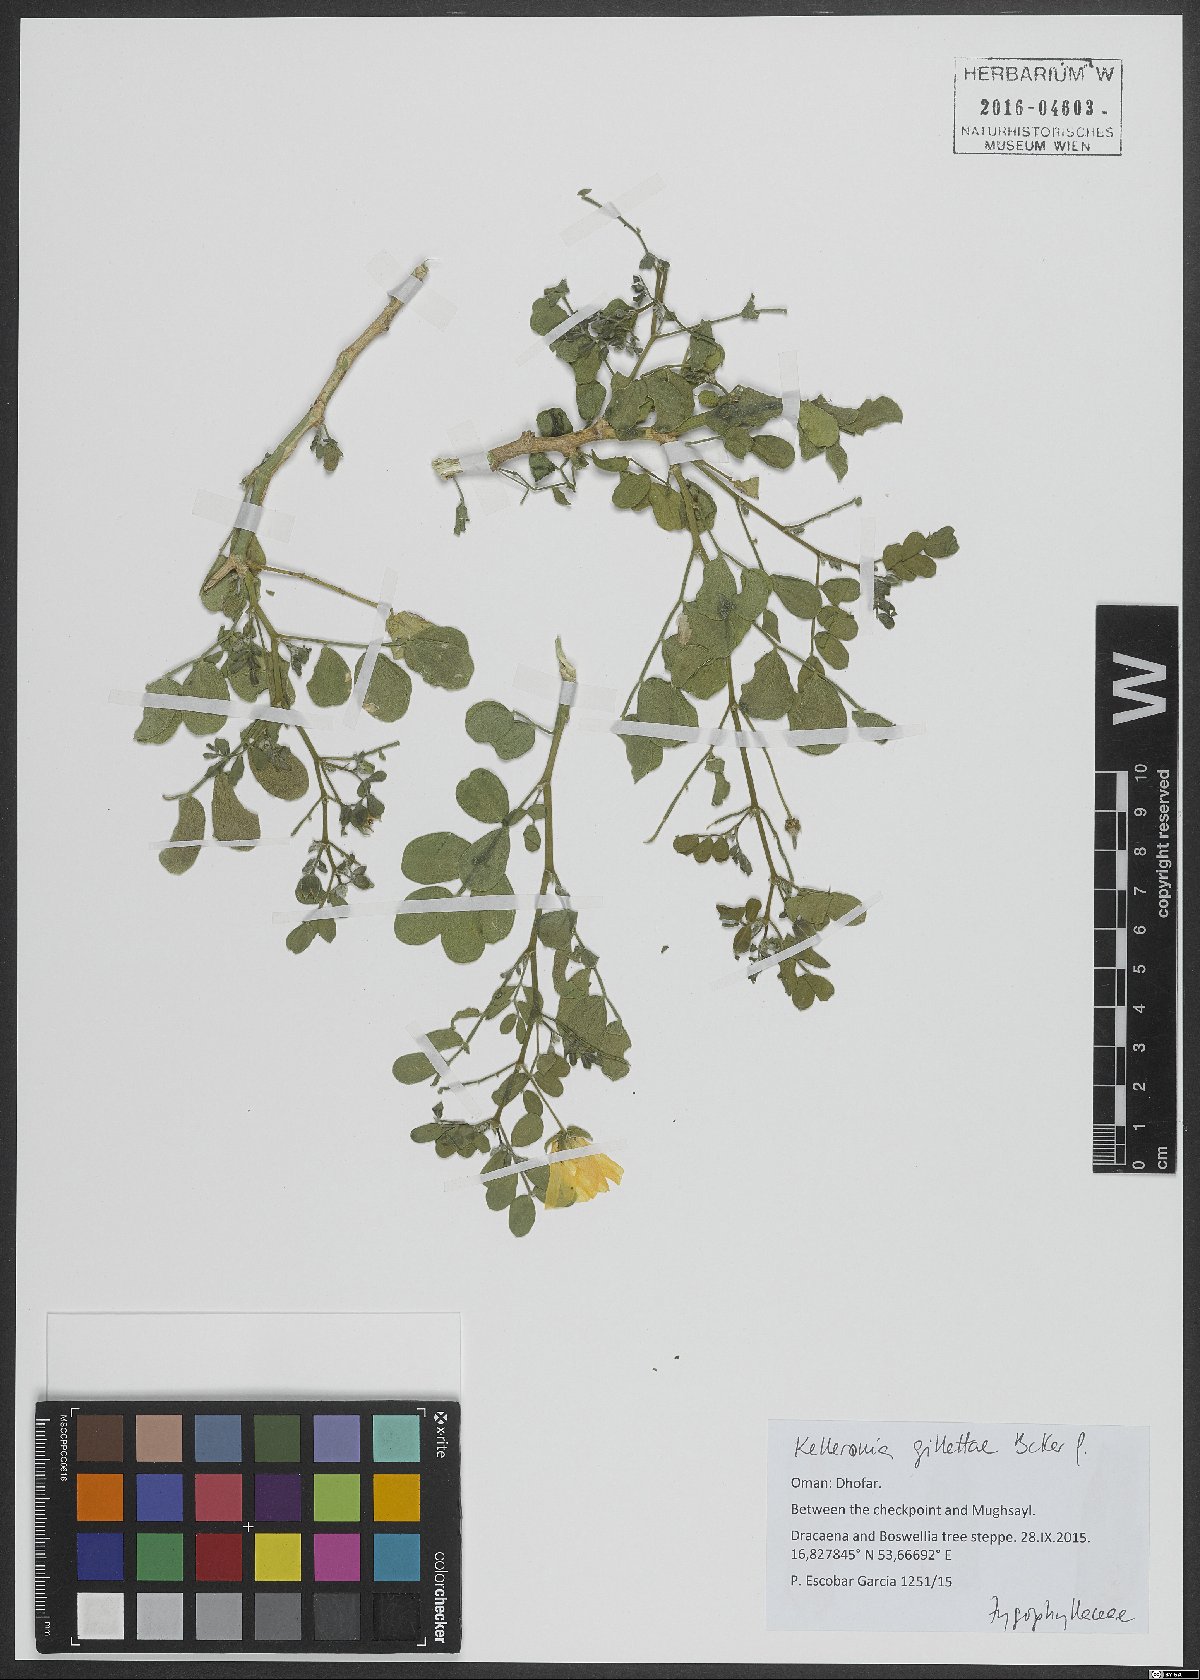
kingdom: Plantae
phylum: Tracheophyta
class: Magnoliopsida
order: Zygophyllales
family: Zygophyllaceae
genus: Kelleronia
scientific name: Kelleronia gillettiae
